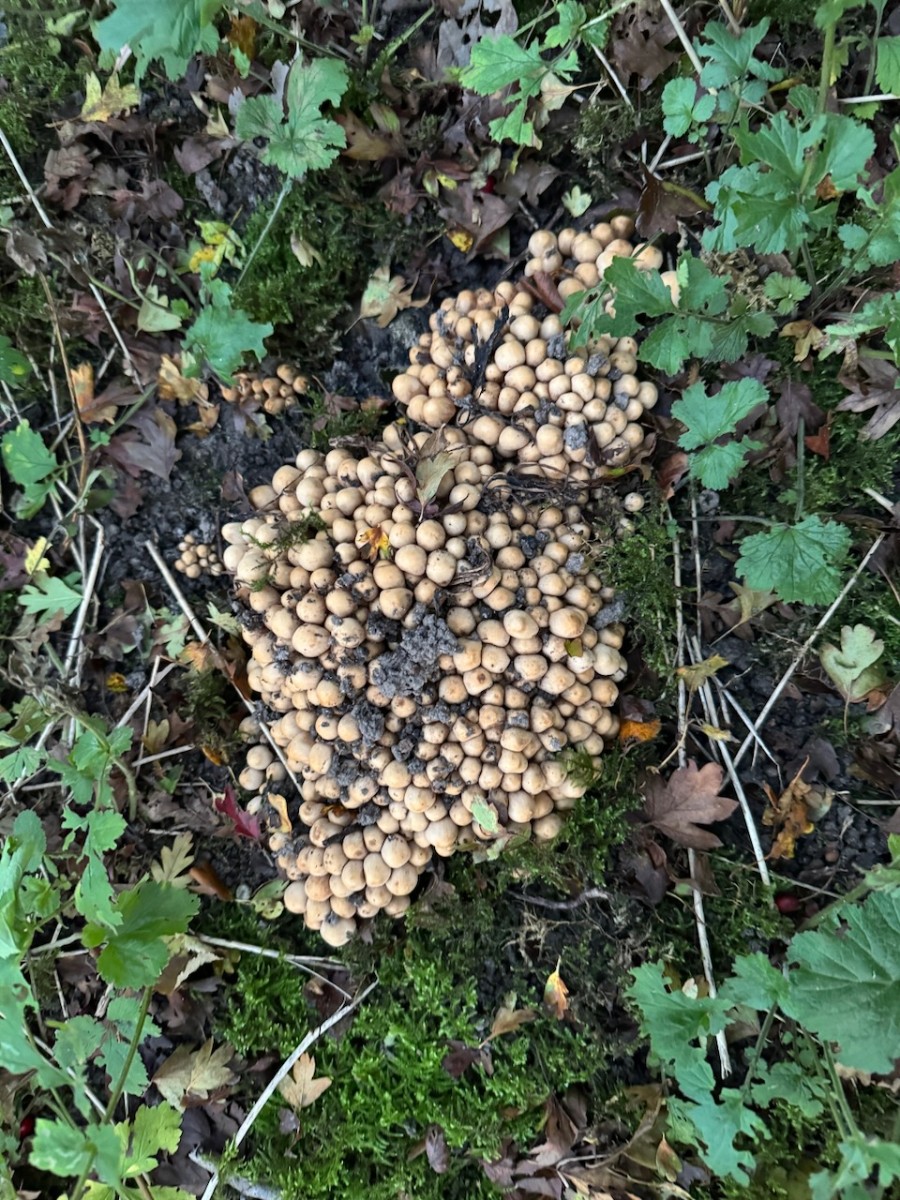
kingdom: Fungi
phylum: Basidiomycota
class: Agaricomycetes
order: Agaricales
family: Psathyrellaceae
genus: Britzelmayria
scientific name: Britzelmayria multipedata
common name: knippe-mørkhat
